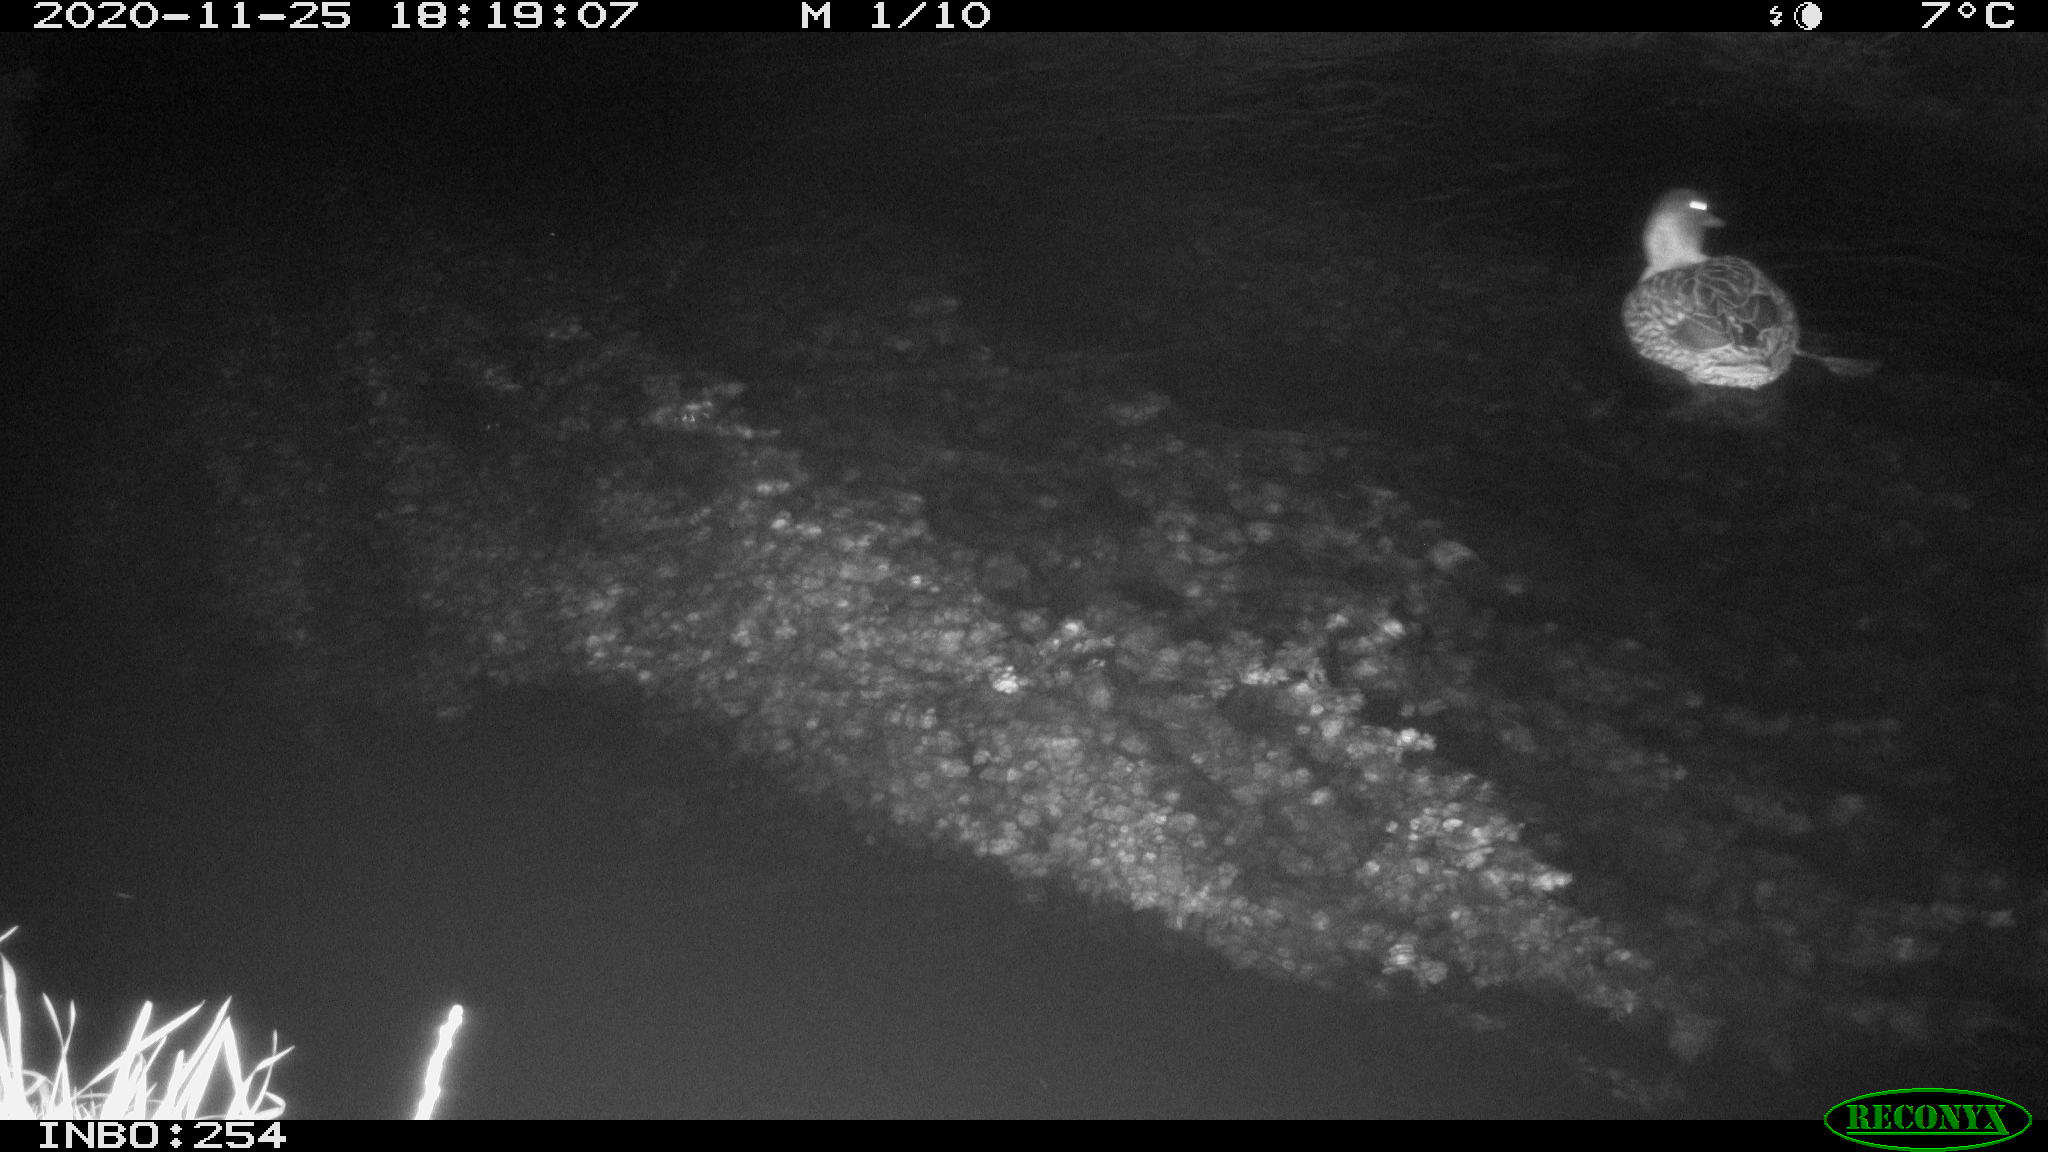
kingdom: Animalia
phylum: Chordata
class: Aves
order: Anseriformes
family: Anatidae
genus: Anas
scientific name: Anas platyrhynchos
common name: Mallard
